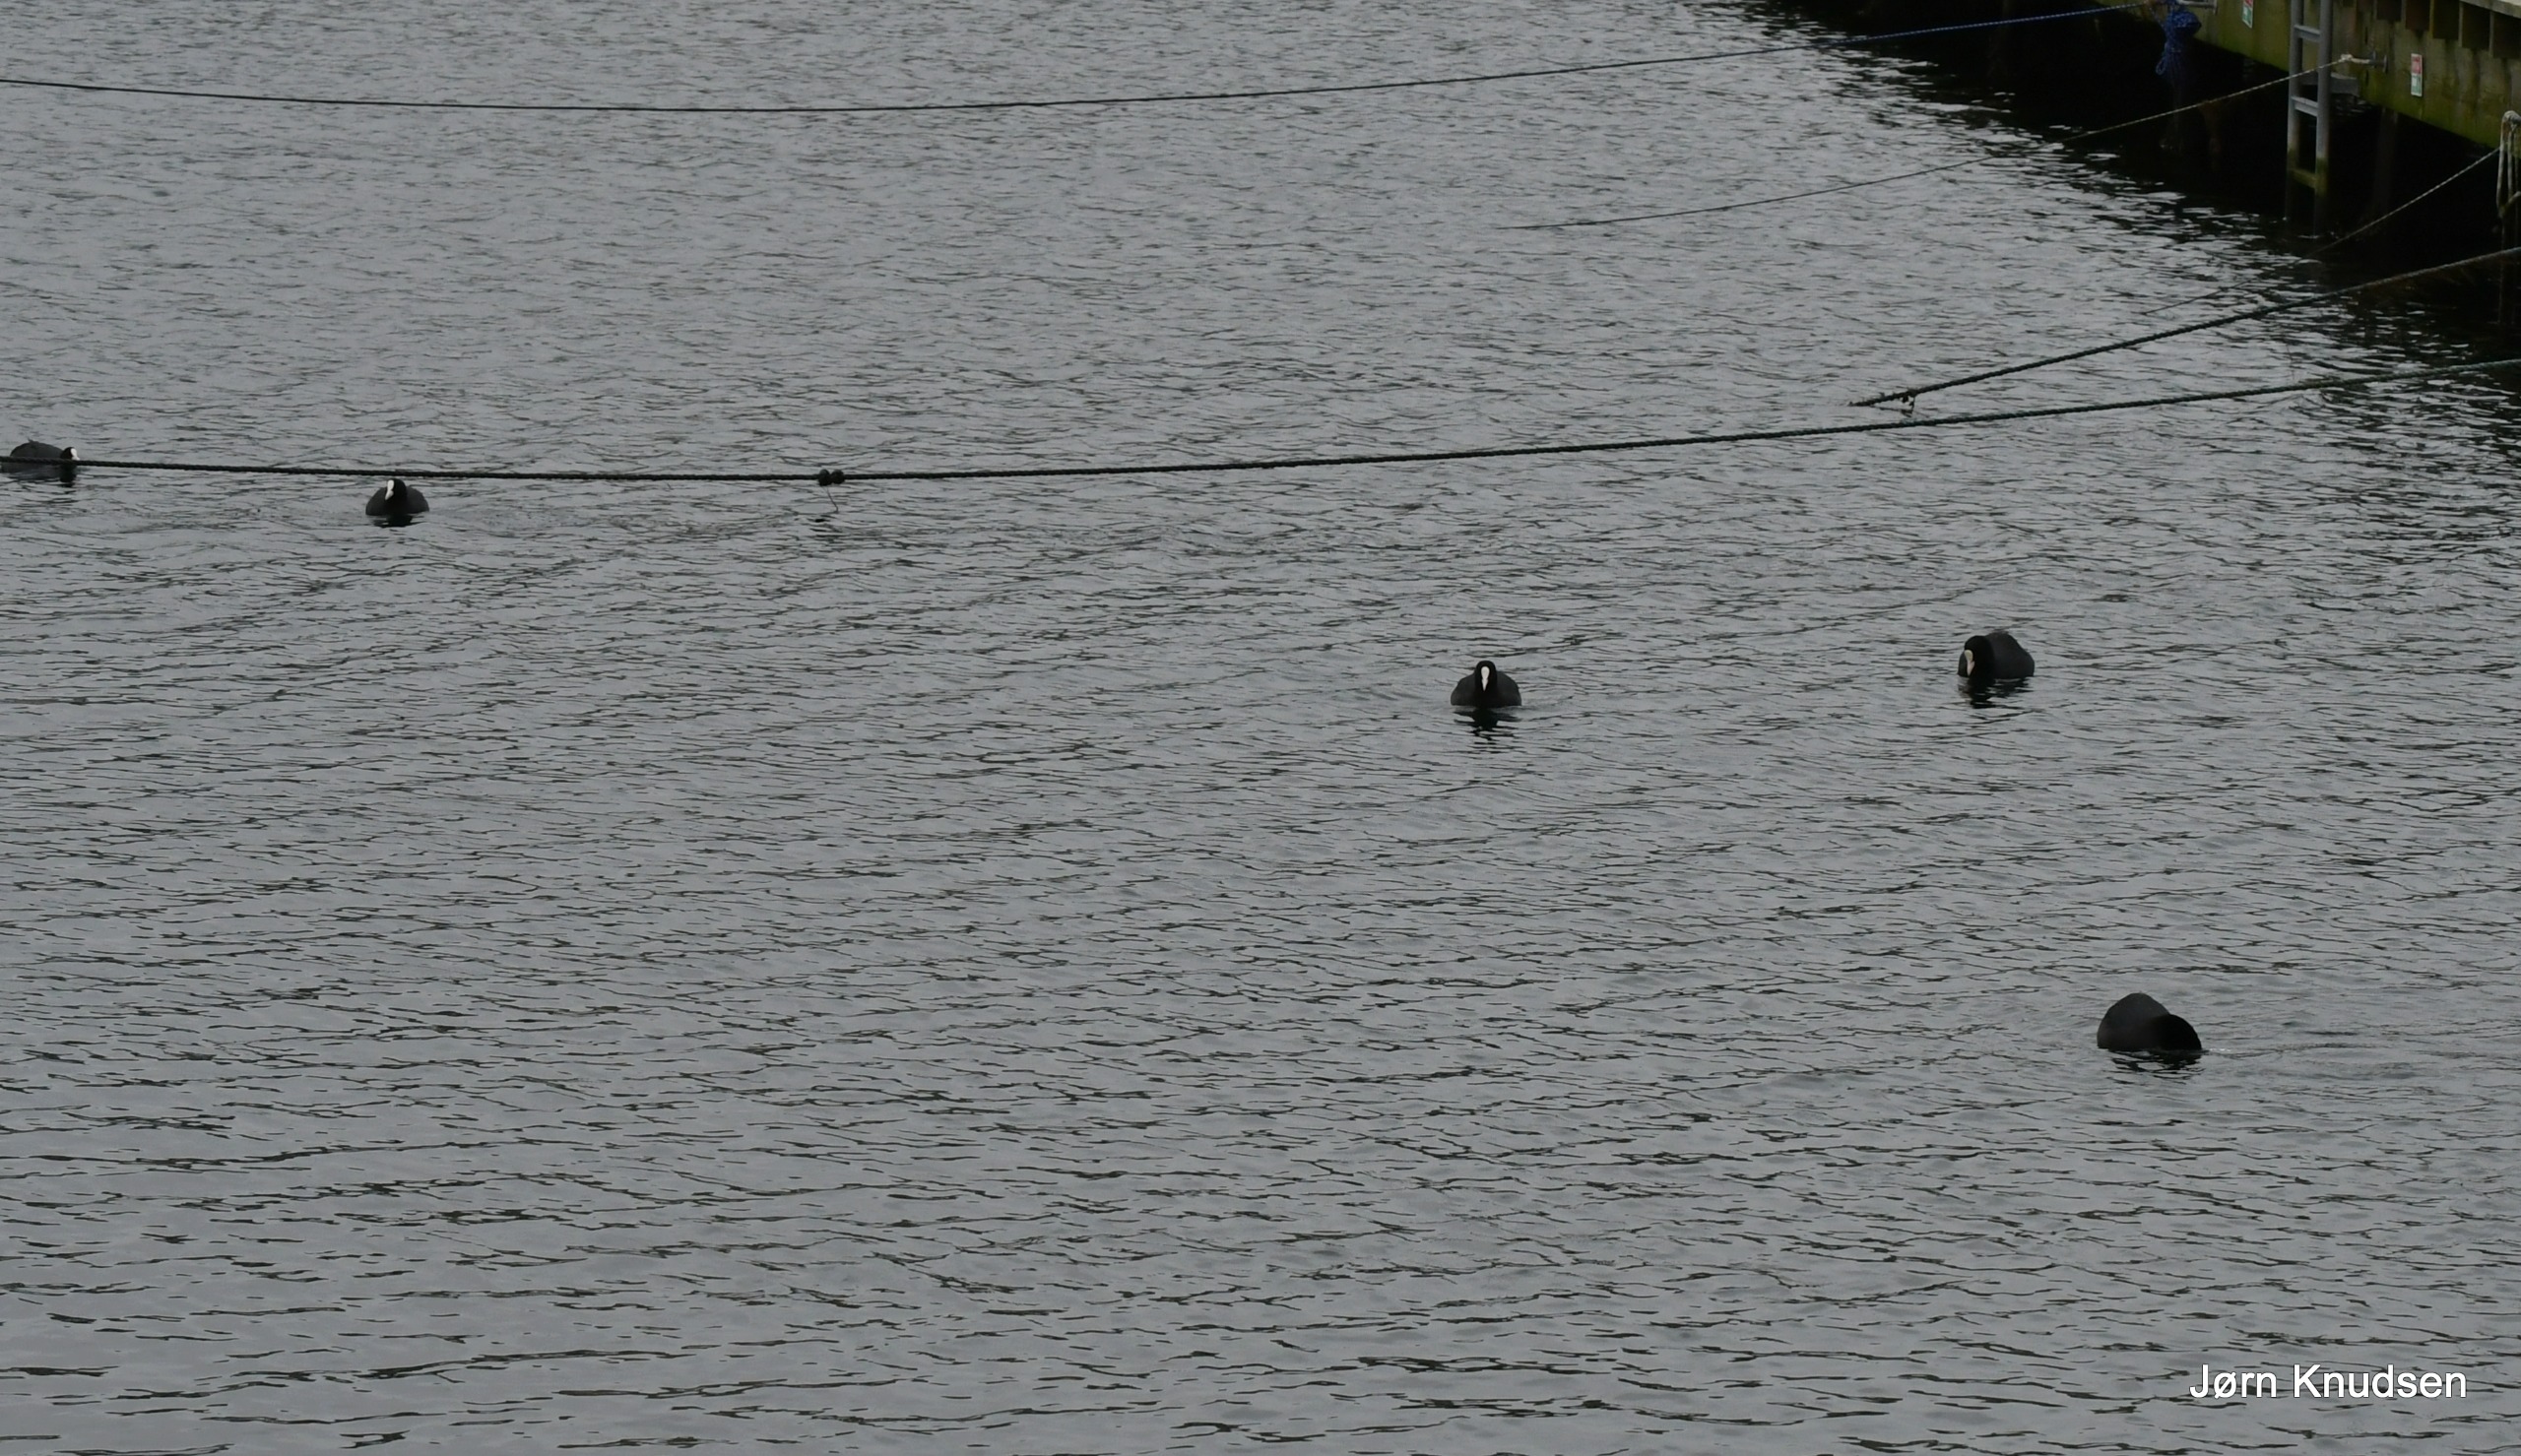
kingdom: Animalia
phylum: Chordata
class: Aves
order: Gruiformes
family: Rallidae
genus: Fulica
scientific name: Fulica atra
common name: Blishøne
